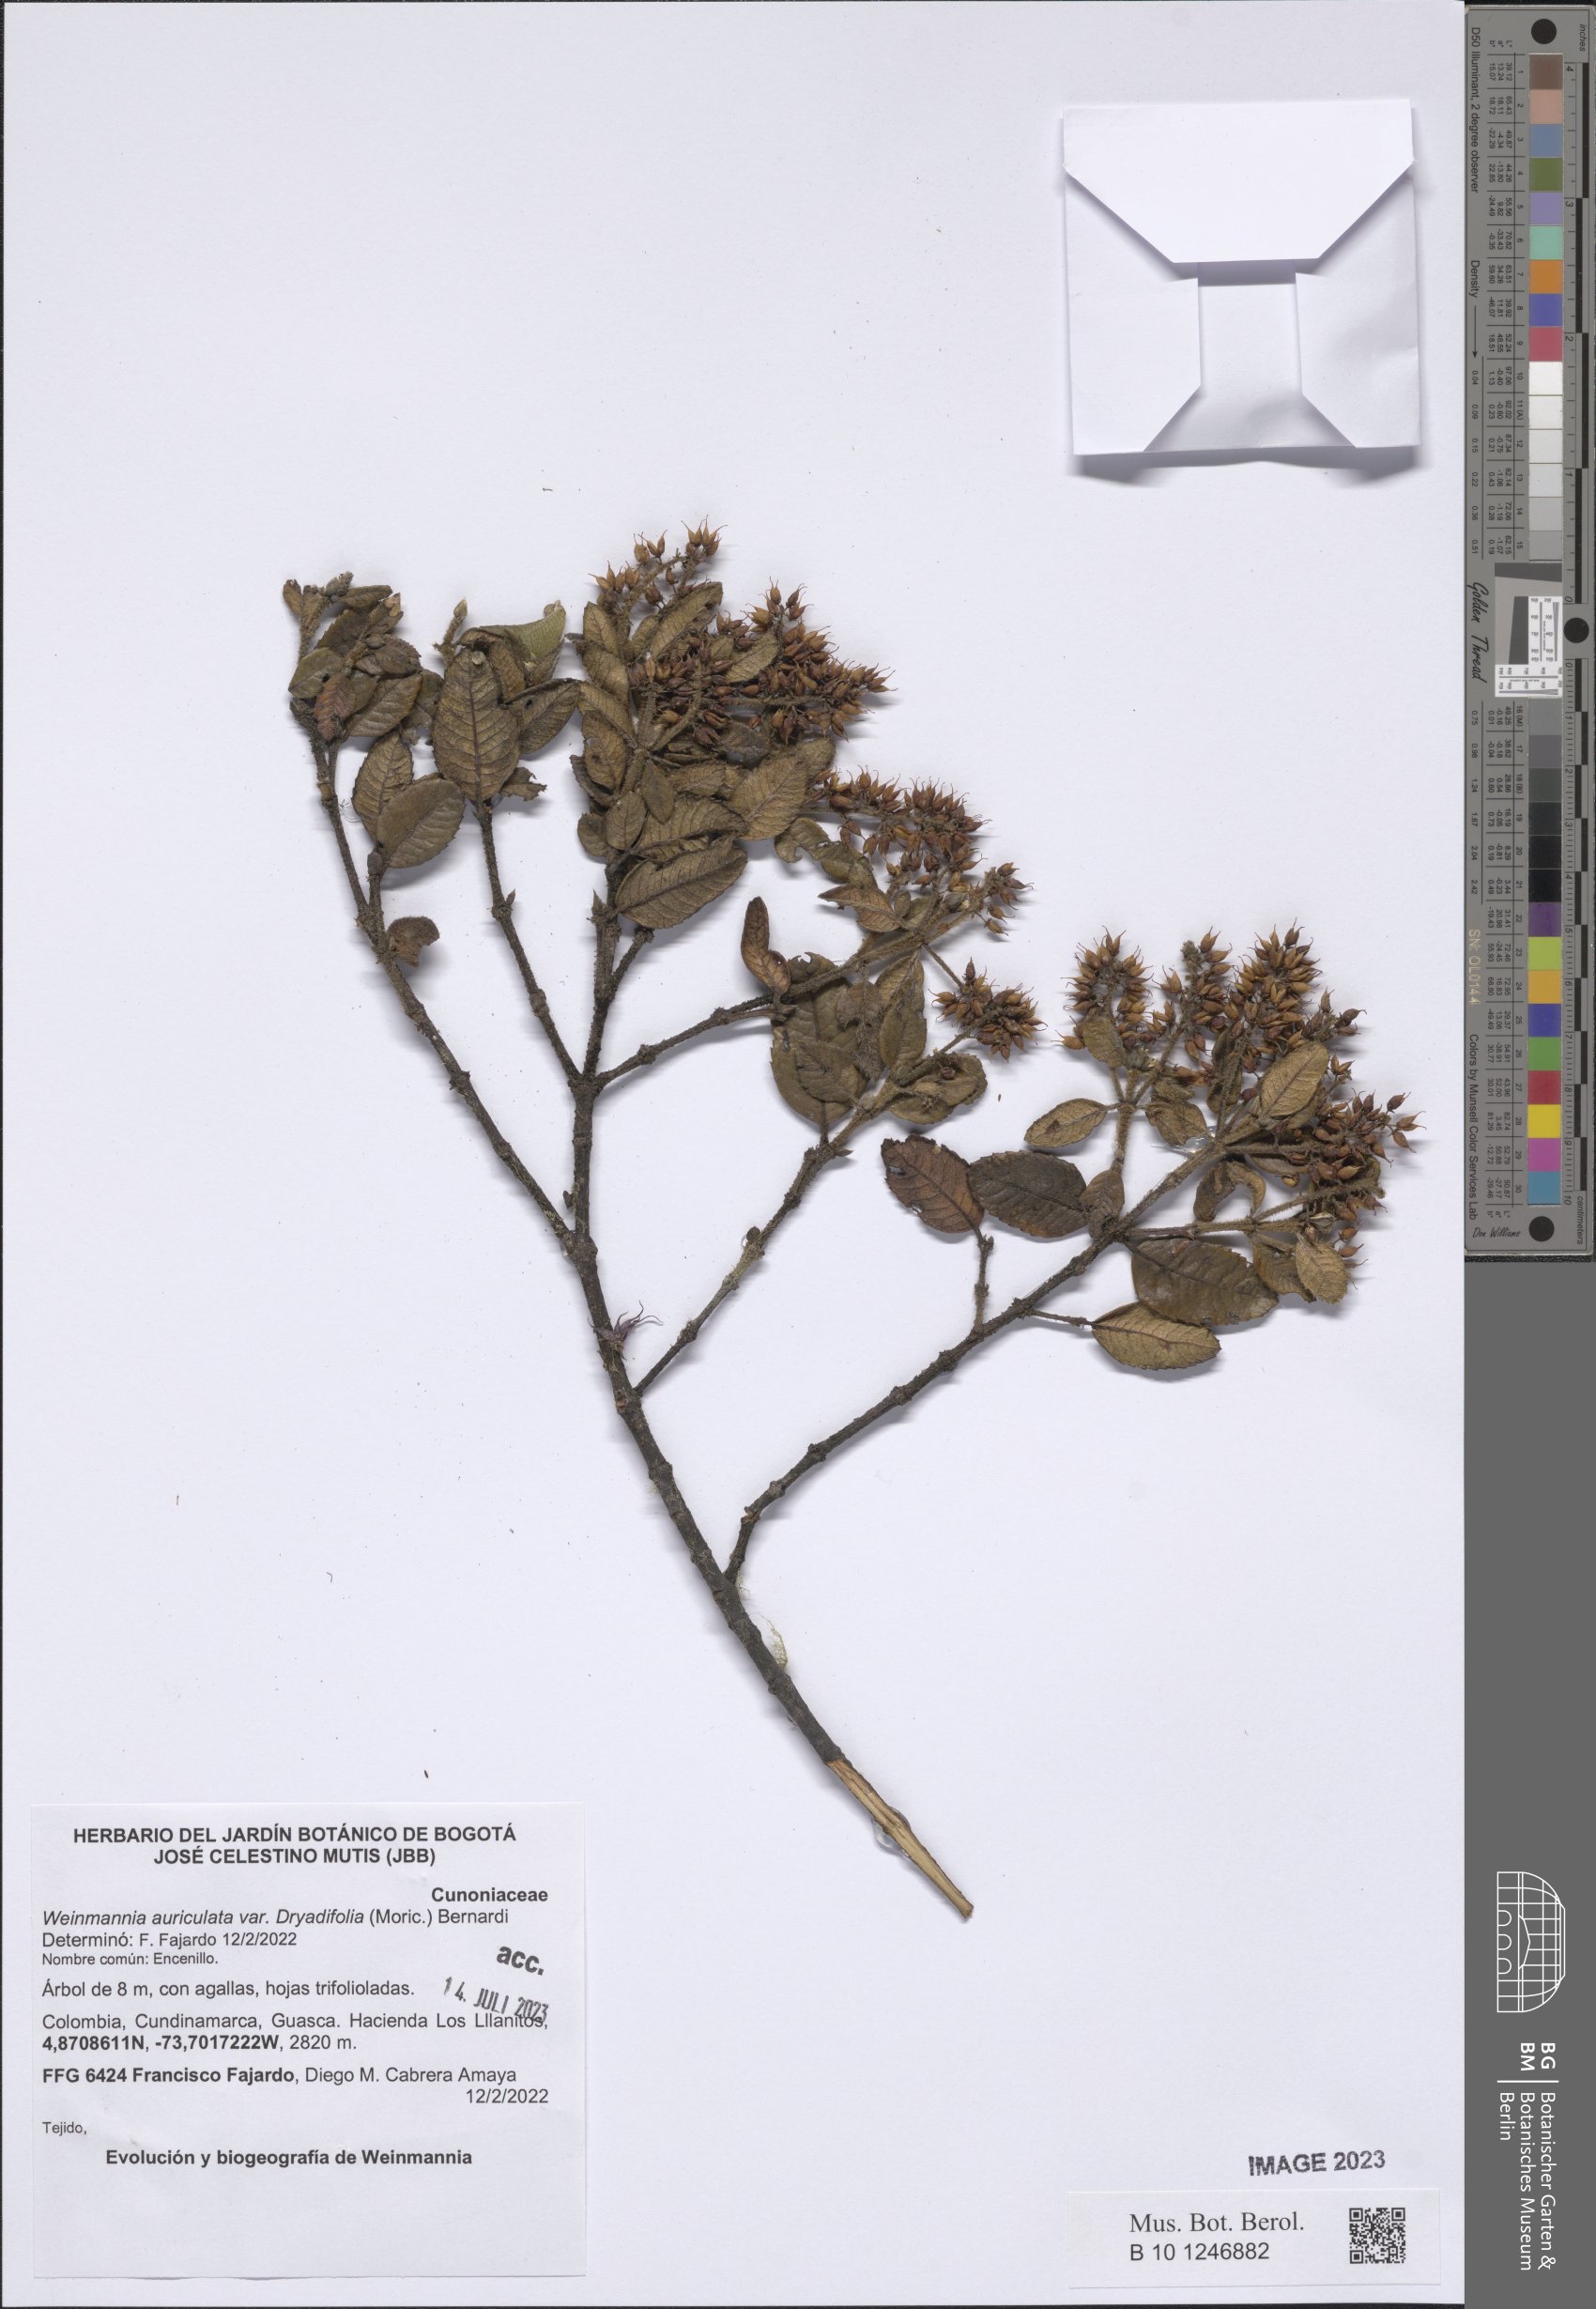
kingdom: Plantae
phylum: Tracheophyta
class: Magnoliopsida
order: Oxalidales
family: Cunoniaceae
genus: Weinmannia
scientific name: Weinmannia auriculata
